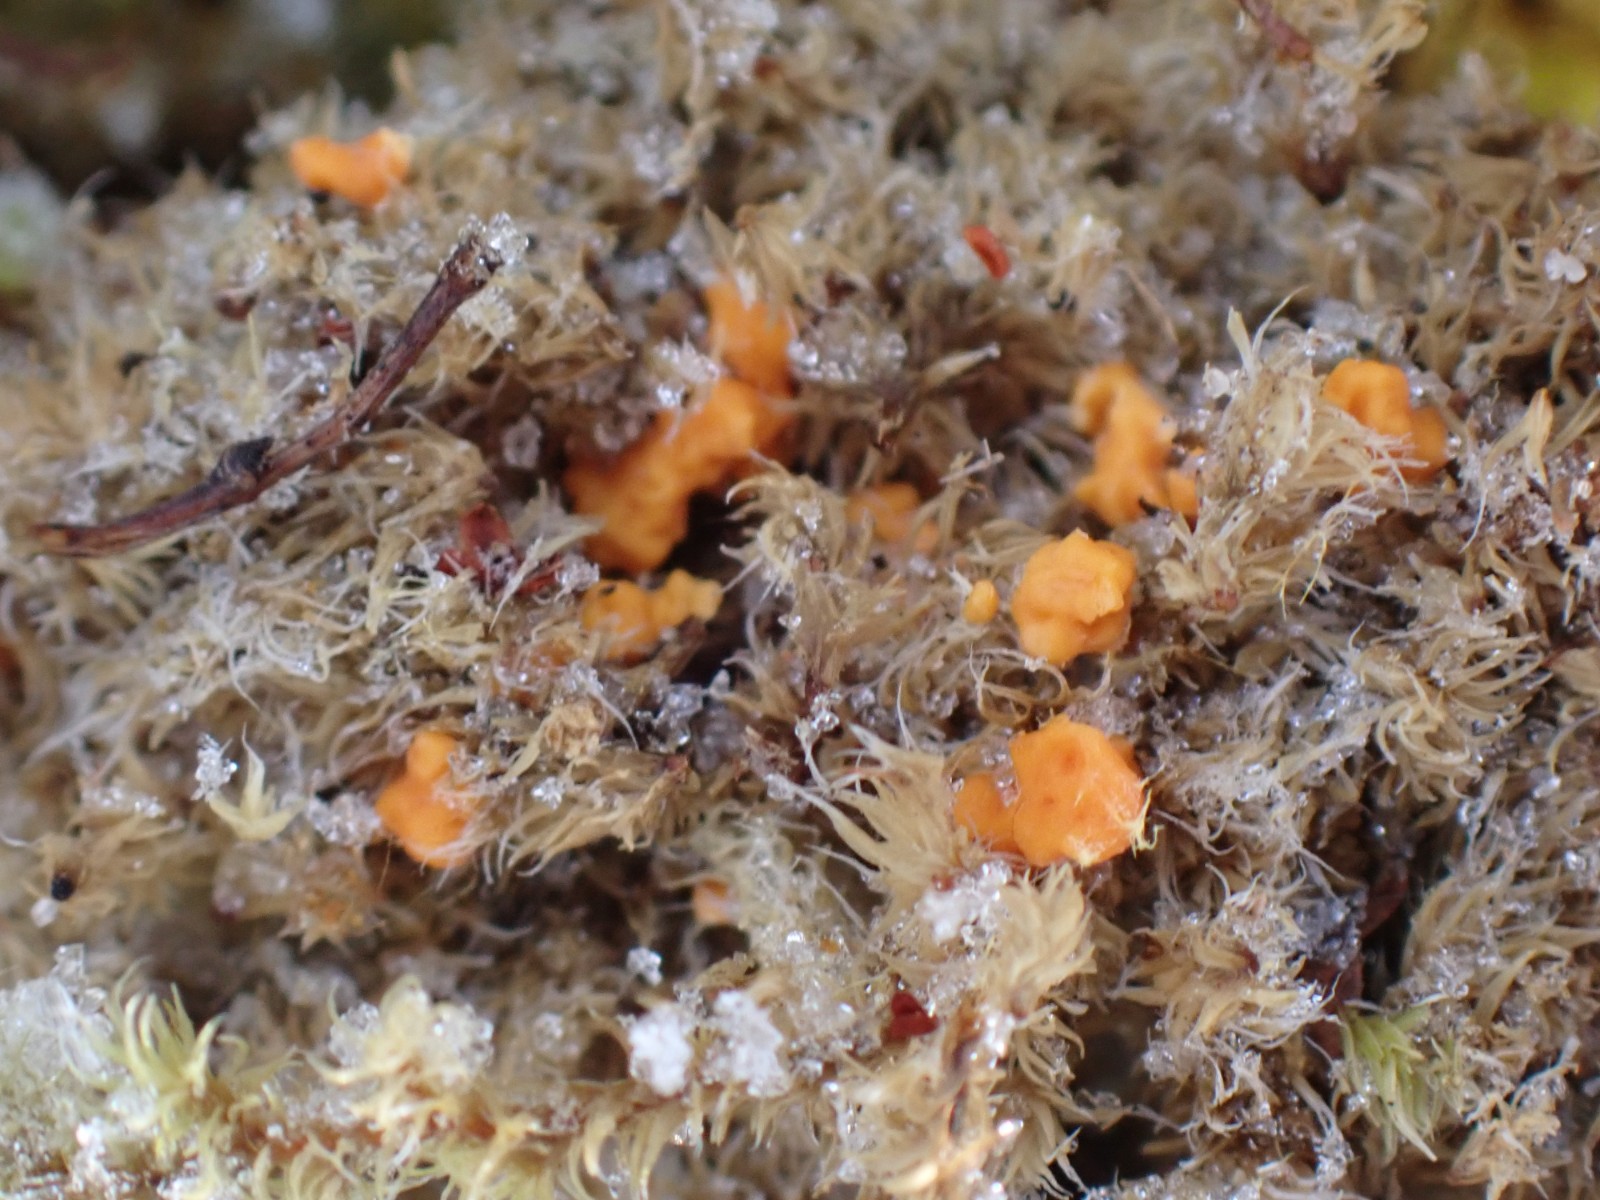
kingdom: Fungi
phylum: Basidiomycota
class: Agaricomycetes
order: Agaricales
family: Typhulaceae
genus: Sclerotium
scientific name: Sclerotium
